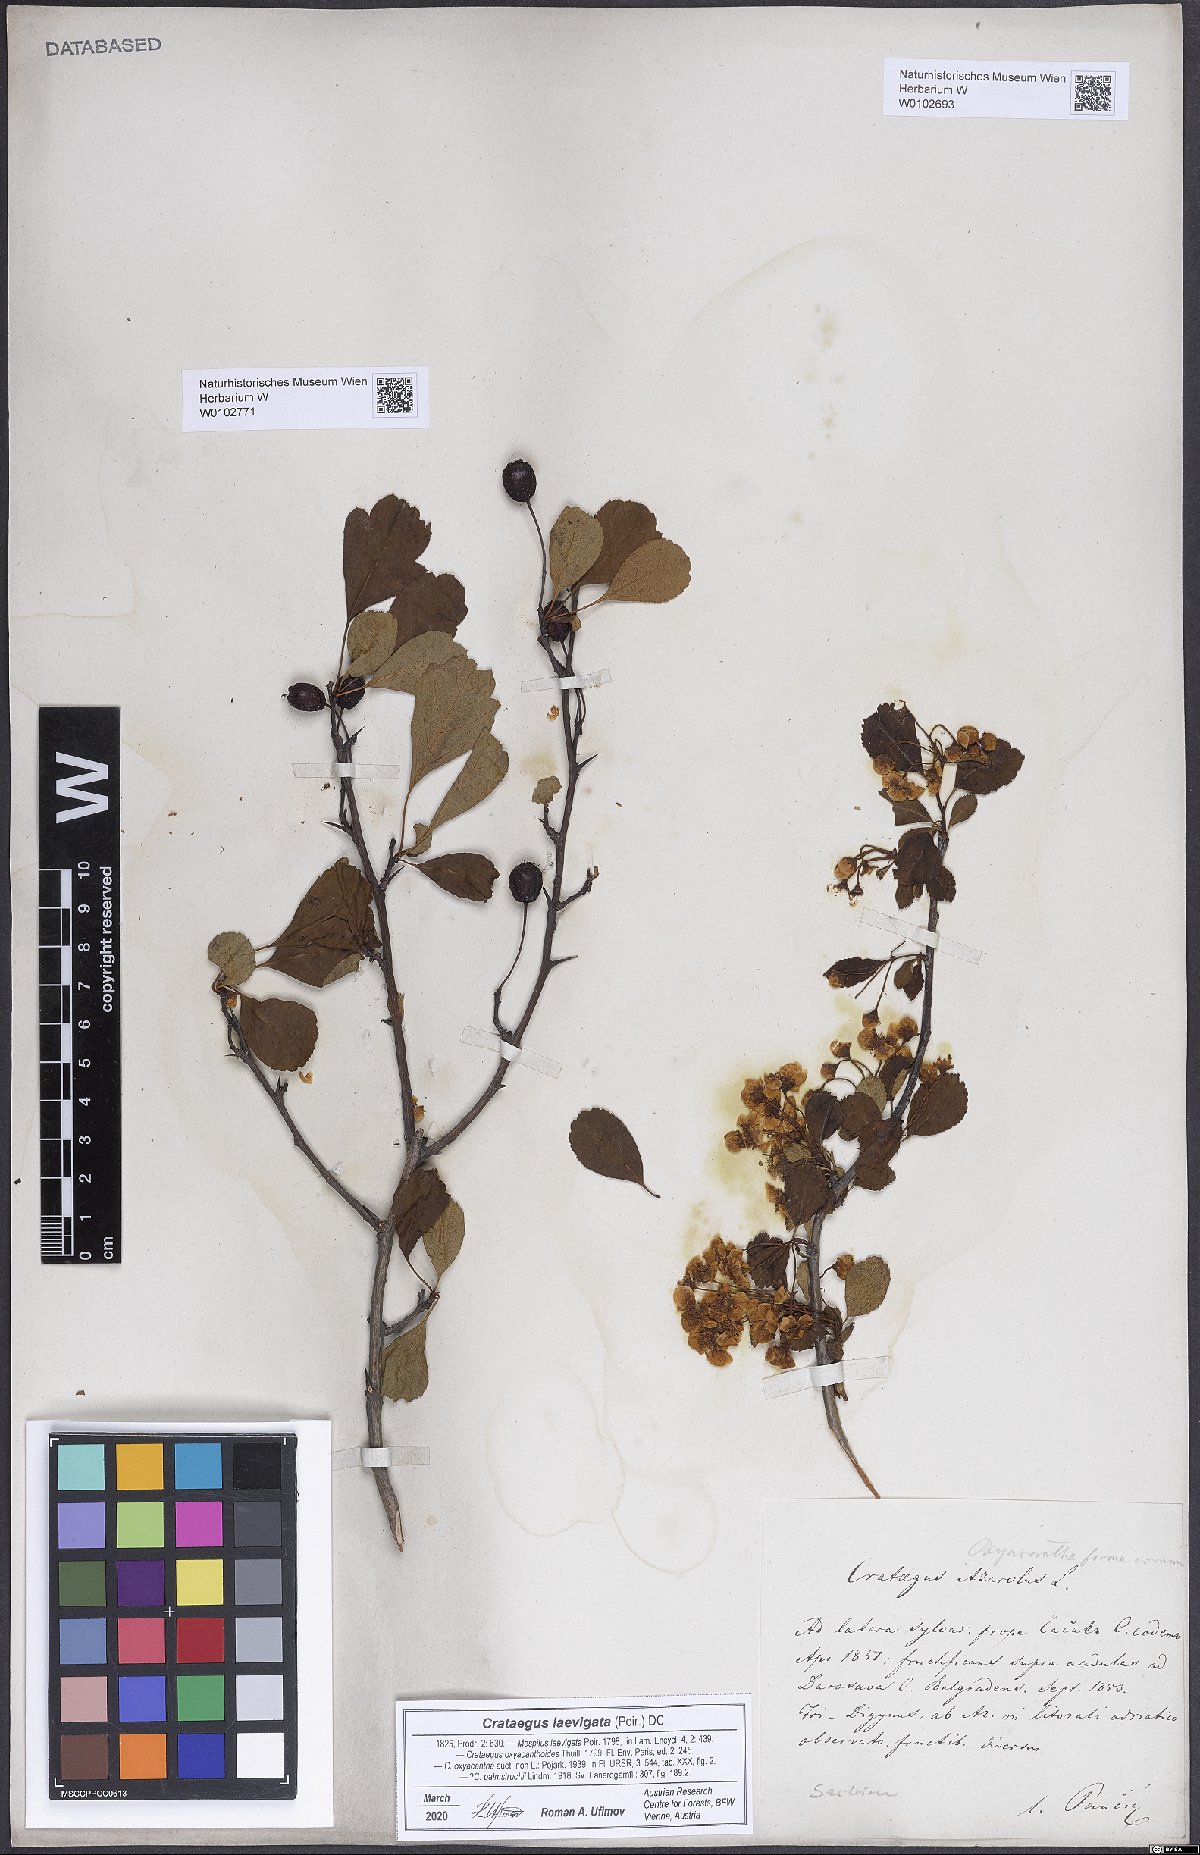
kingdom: Plantae
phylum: Tracheophyta
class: Magnoliopsida
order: Rosales
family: Rosaceae
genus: Crataegus
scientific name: Crataegus laevigata
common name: Midland hawthorn
